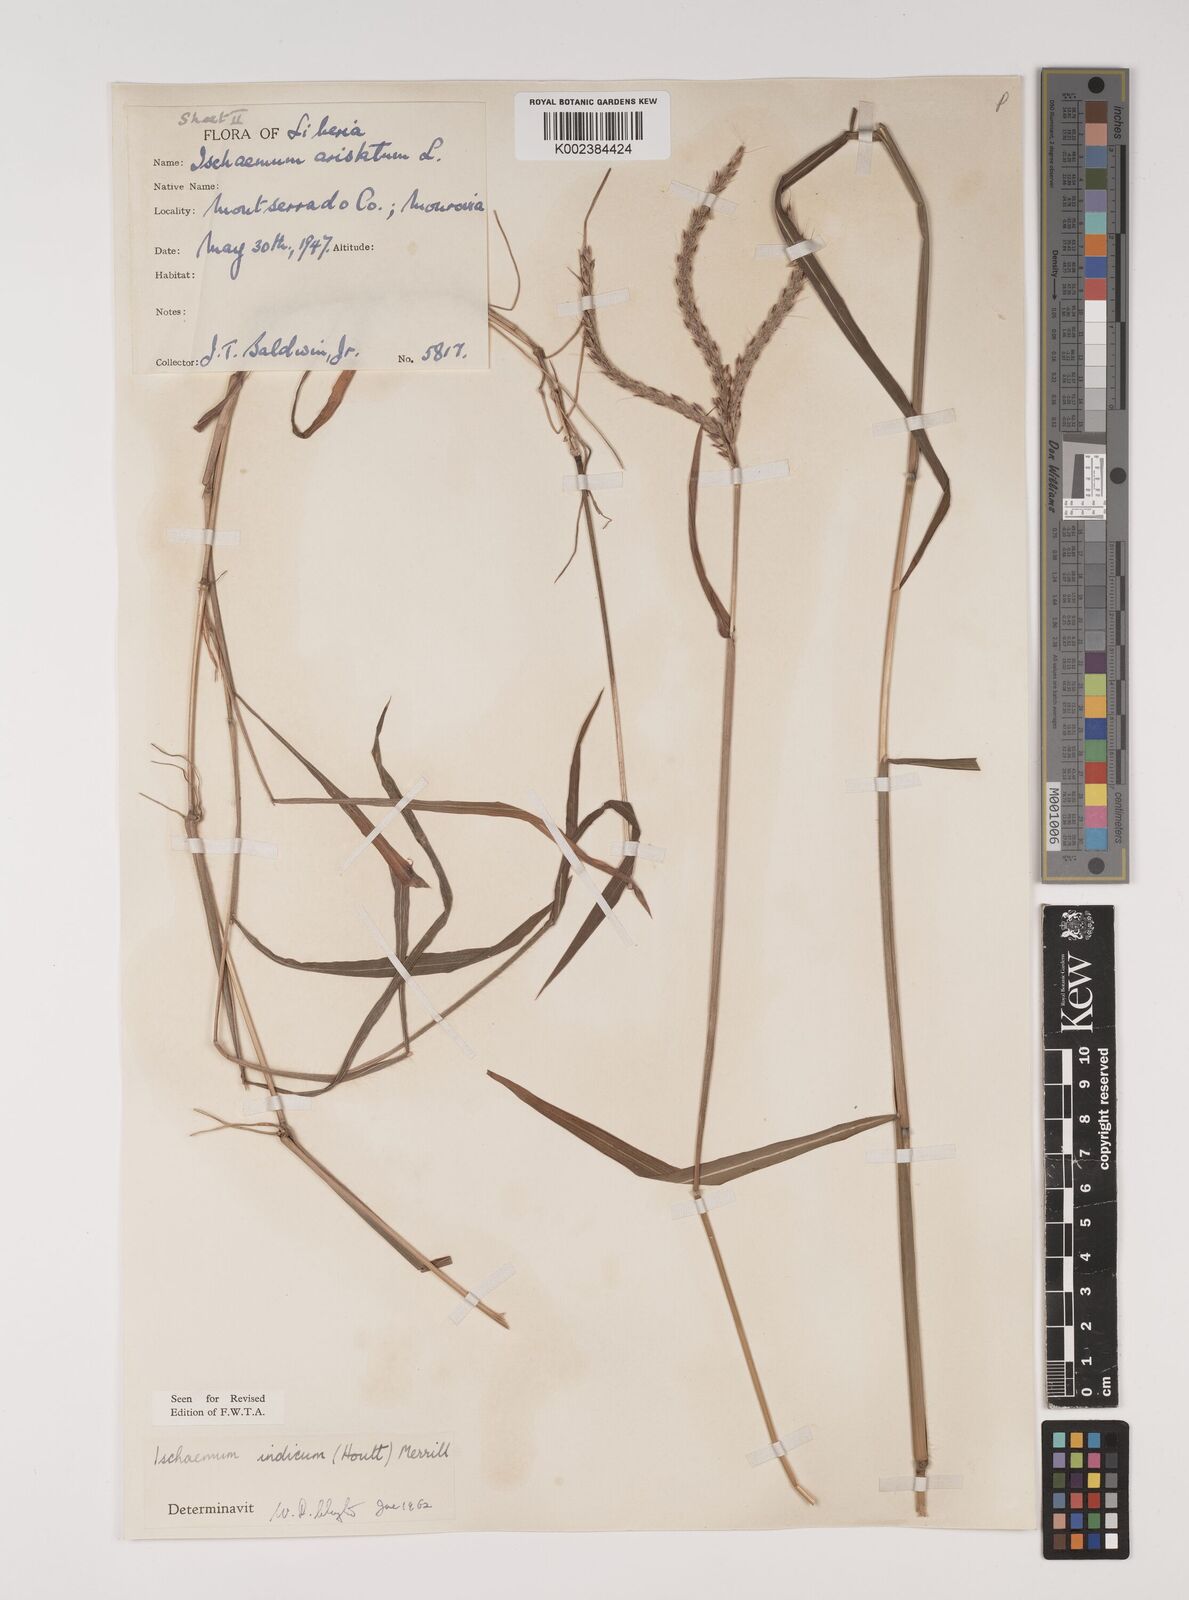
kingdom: Plantae
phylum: Tracheophyta
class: Liliopsida
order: Poales
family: Poaceae
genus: Polytrias
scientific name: Polytrias indica
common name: Indian murainagrass
